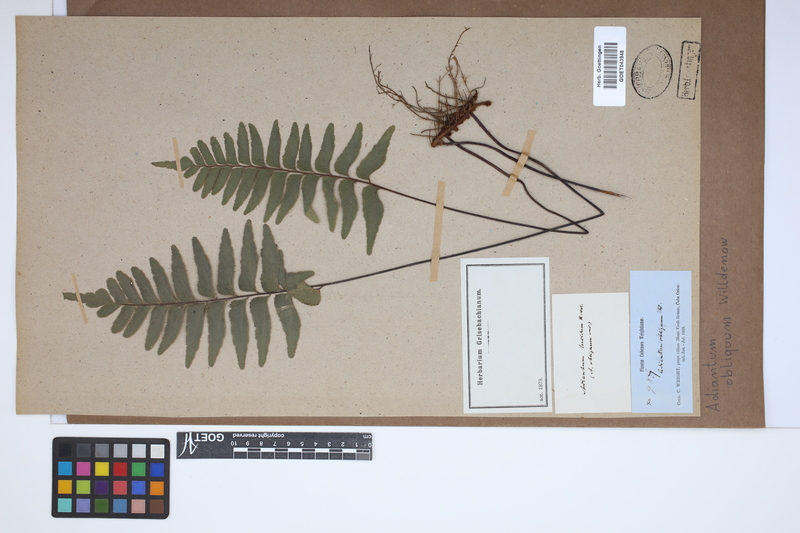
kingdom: Plantae
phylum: Tracheophyta
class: Polypodiopsida
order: Polypodiales
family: Pteridaceae
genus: Adiantum
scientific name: Adiantum macrophyllum
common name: Largeleaf maidenhair
